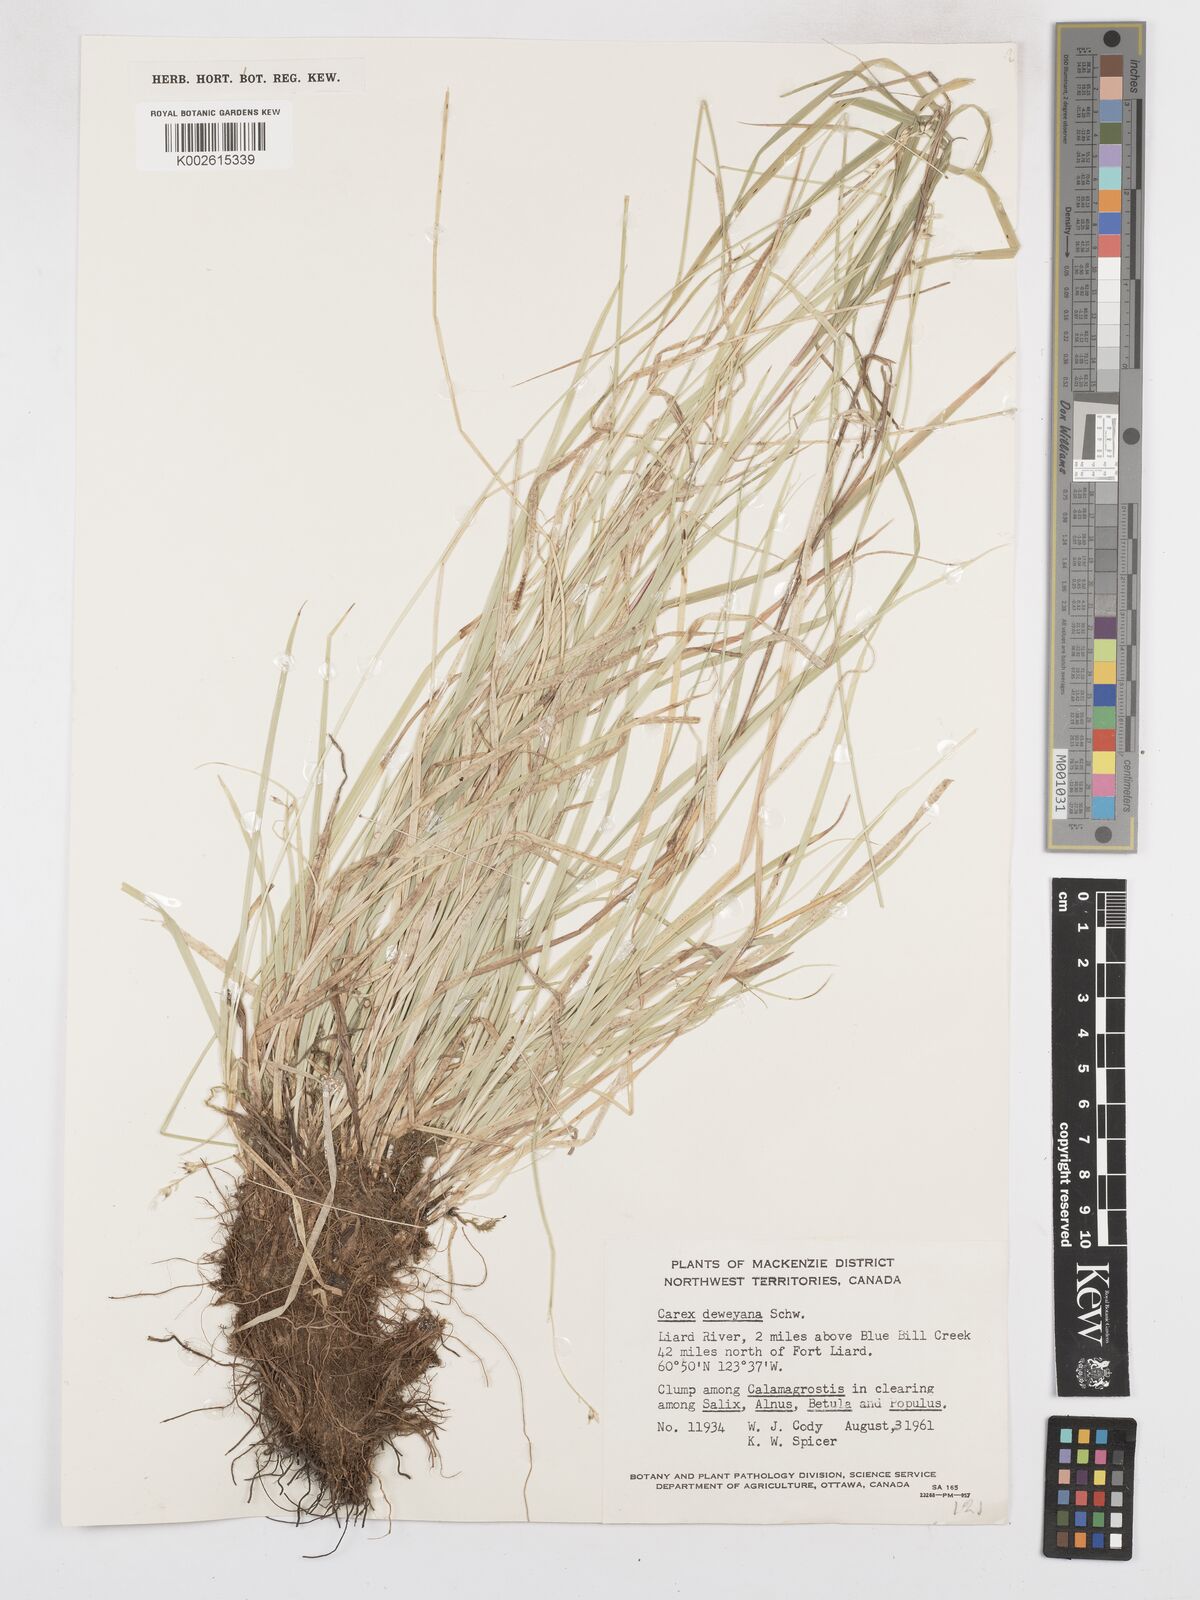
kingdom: Plantae
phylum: Tracheophyta
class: Liliopsida
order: Poales
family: Cyperaceae
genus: Carex
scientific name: Carex deweyana
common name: Dewey's sedge
